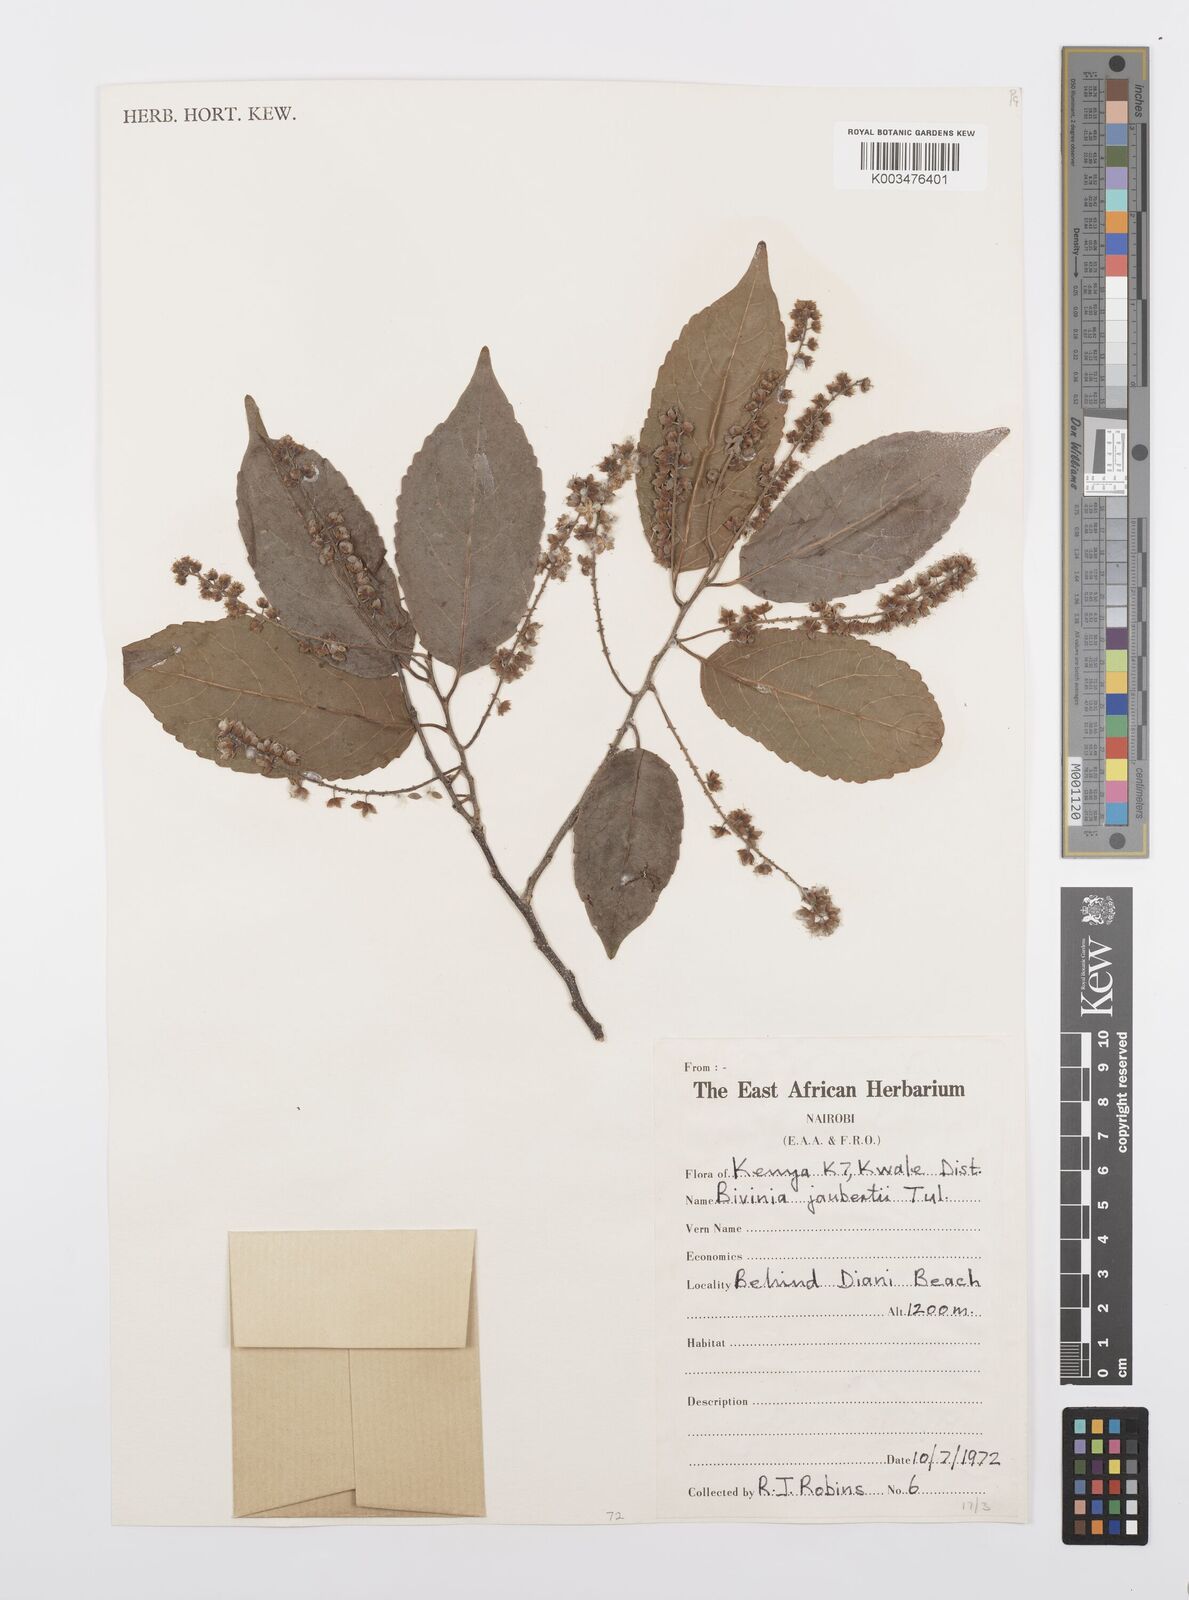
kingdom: Plantae
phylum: Tracheophyta
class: Magnoliopsida
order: Malpighiales
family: Salicaceae
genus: Bivinia
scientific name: Bivinia jalbertii
